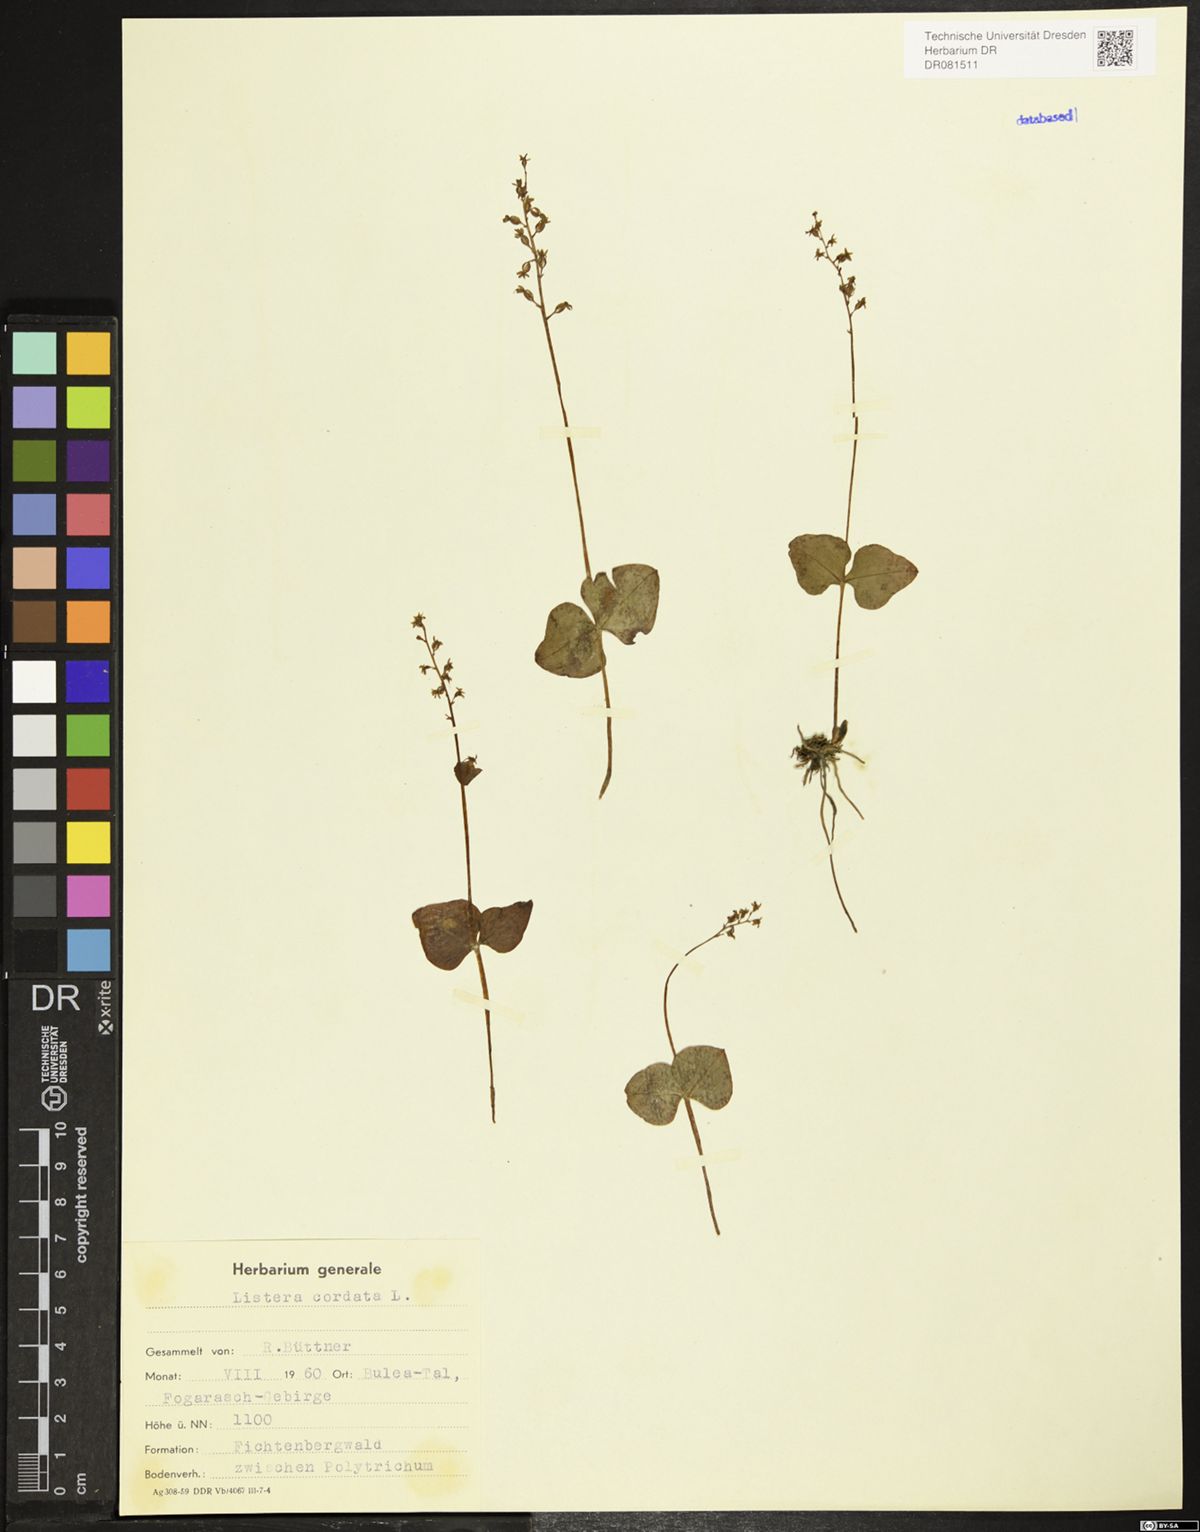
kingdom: Plantae
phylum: Tracheophyta
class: Liliopsida
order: Asparagales
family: Orchidaceae
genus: Neottia
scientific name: Neottia cordata
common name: Lesser twayblade
